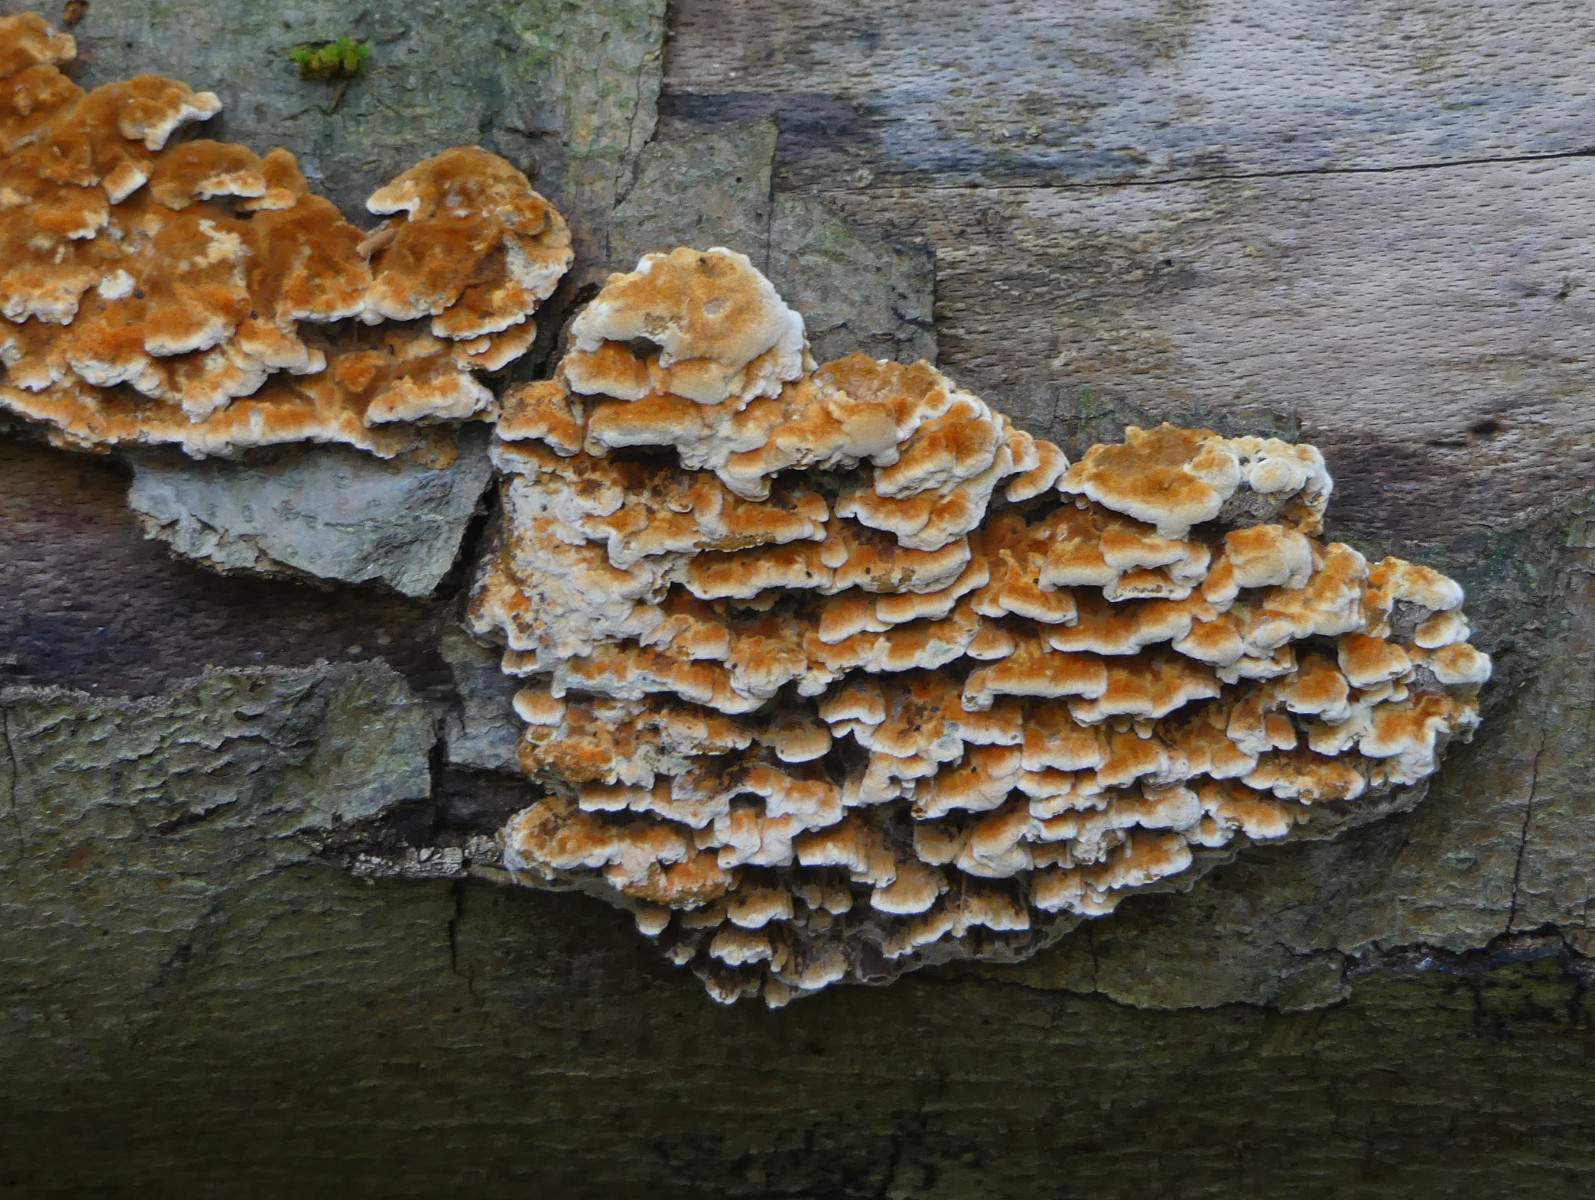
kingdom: Fungi
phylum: Basidiomycota
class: Agaricomycetes
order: Hymenochaetales
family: Hymenochaetaceae
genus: Mensularia
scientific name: Mensularia nodulosa
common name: bøge-spejlporesvamp
